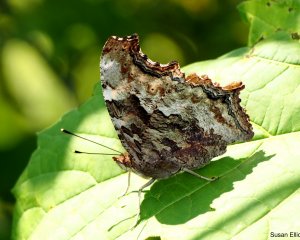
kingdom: Animalia
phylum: Arthropoda
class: Insecta
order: Lepidoptera
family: Nymphalidae
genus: Polygonia
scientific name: Polygonia vaualbum
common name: Compton Tortoiseshell
